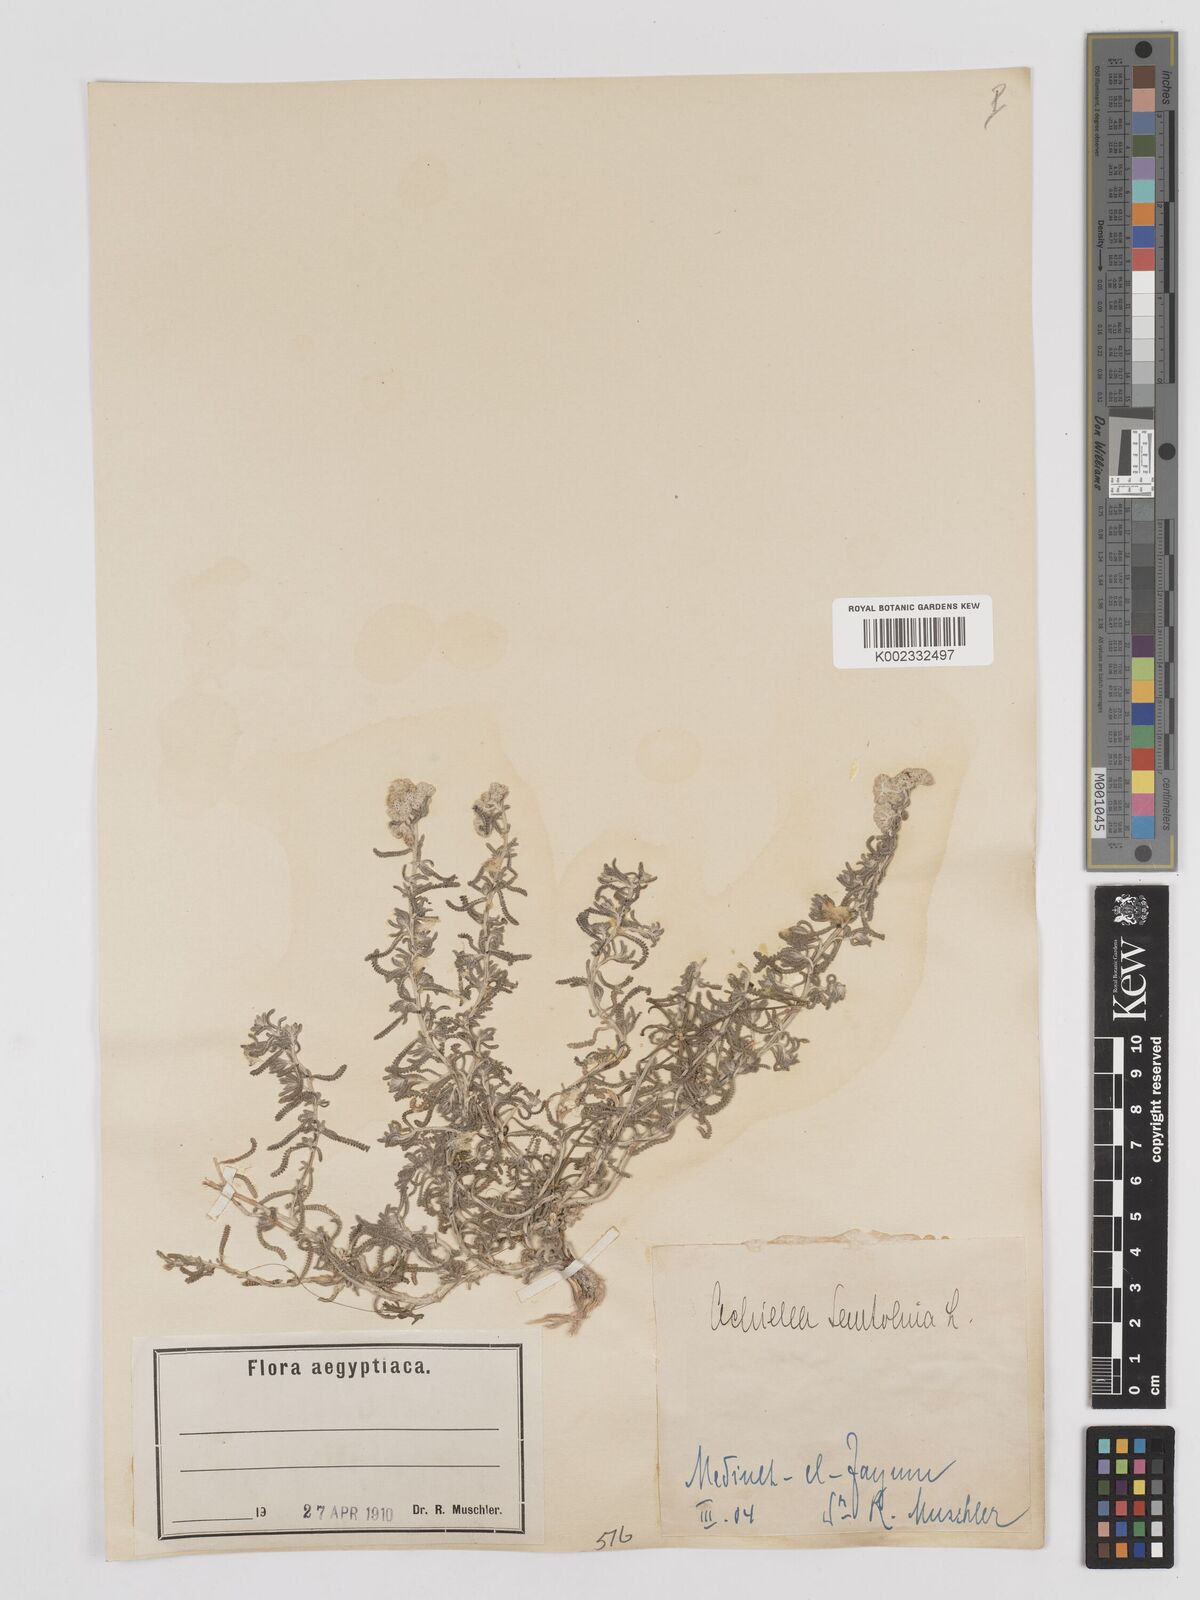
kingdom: Plantae
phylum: Tracheophyta
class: Magnoliopsida
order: Asterales
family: Asteraceae
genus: Achillea
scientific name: Achillea tenuifolia
